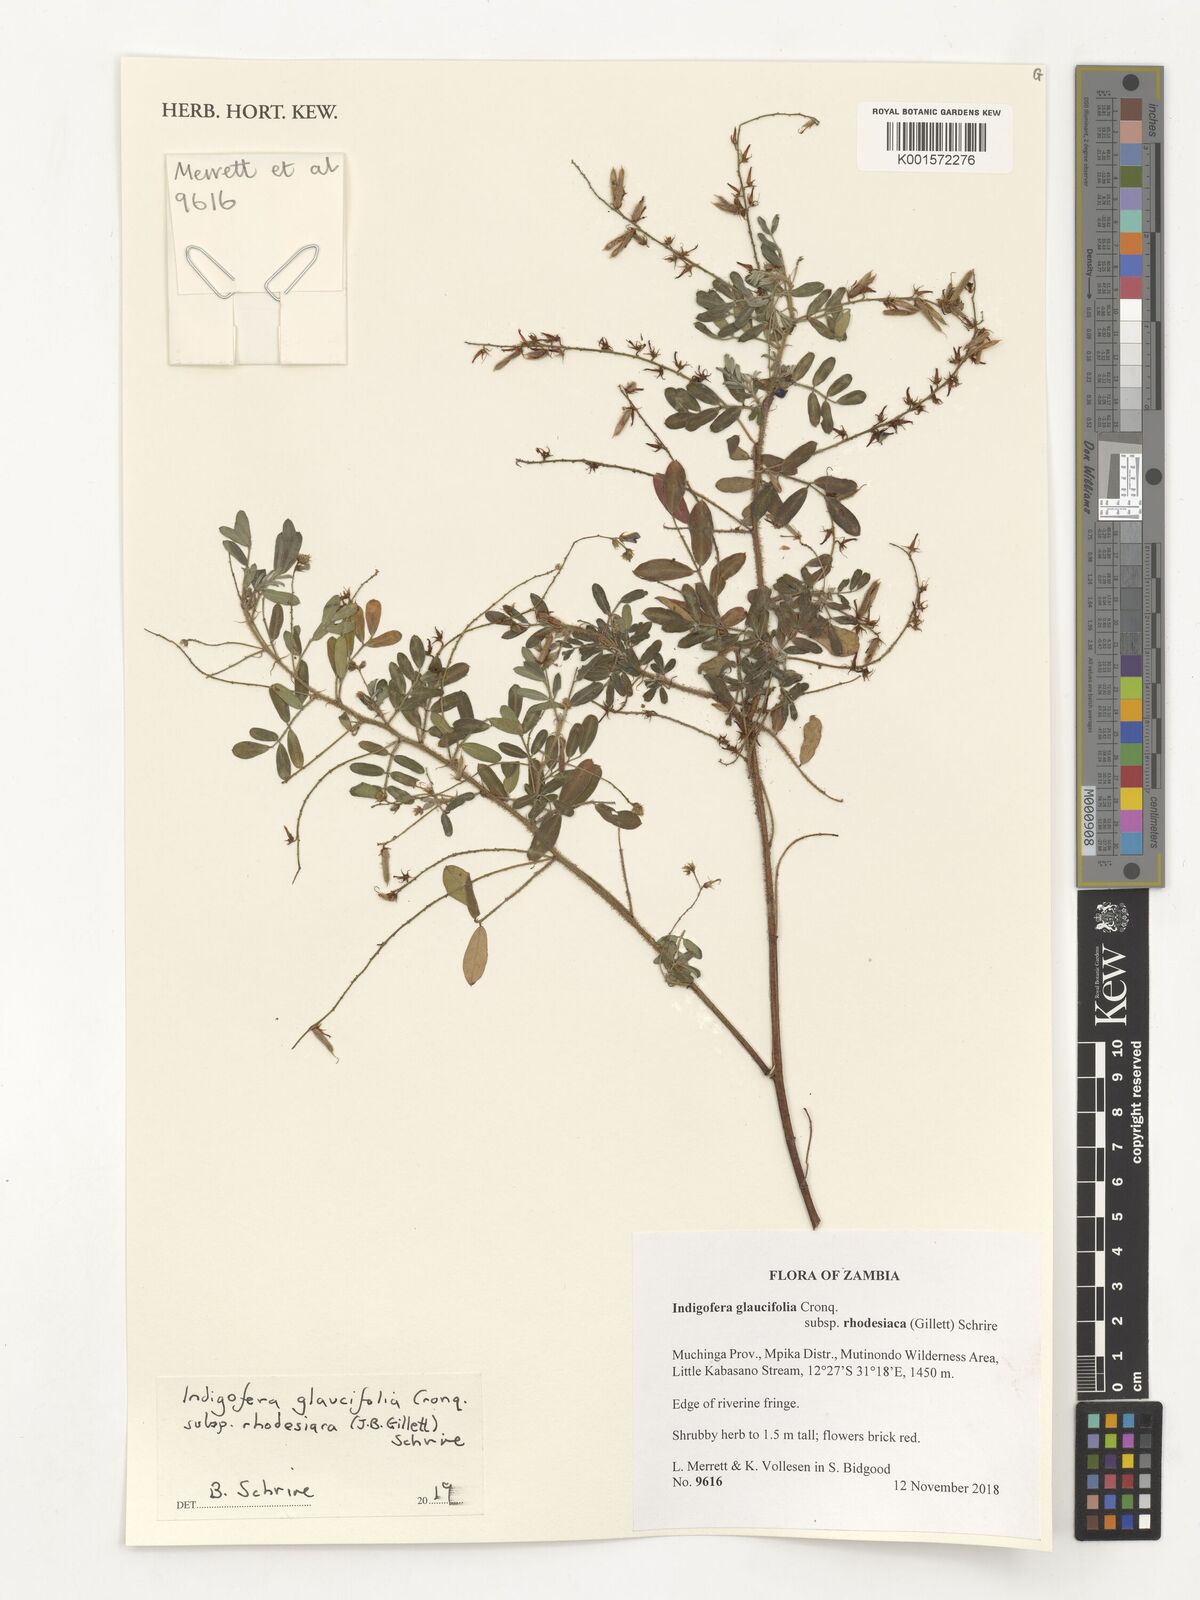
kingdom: Plantae
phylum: Tracheophyta
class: Magnoliopsida
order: Fabales
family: Fabaceae
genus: Indigofera
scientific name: Indigofera glaucifolia
